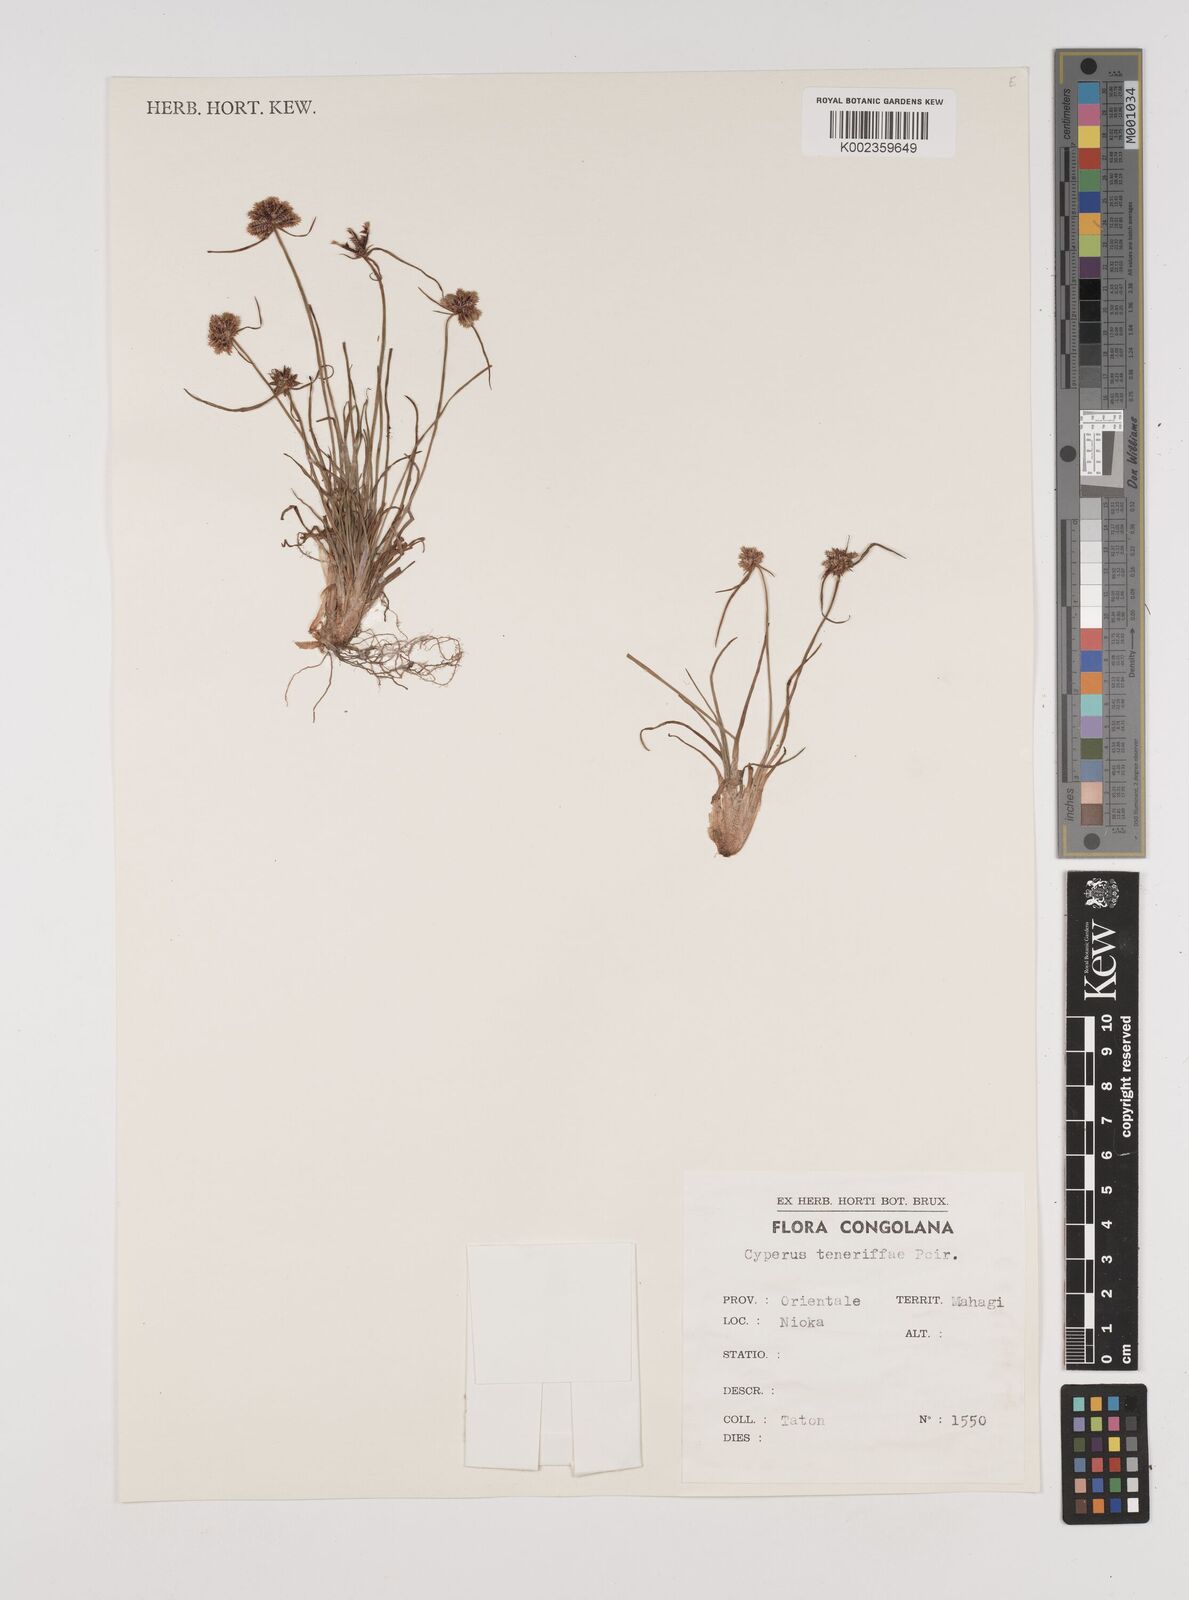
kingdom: Plantae
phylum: Tracheophyta
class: Liliopsida
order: Poales
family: Cyperaceae
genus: Cyperus
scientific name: Cyperus rubicundus
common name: Coco-grass
